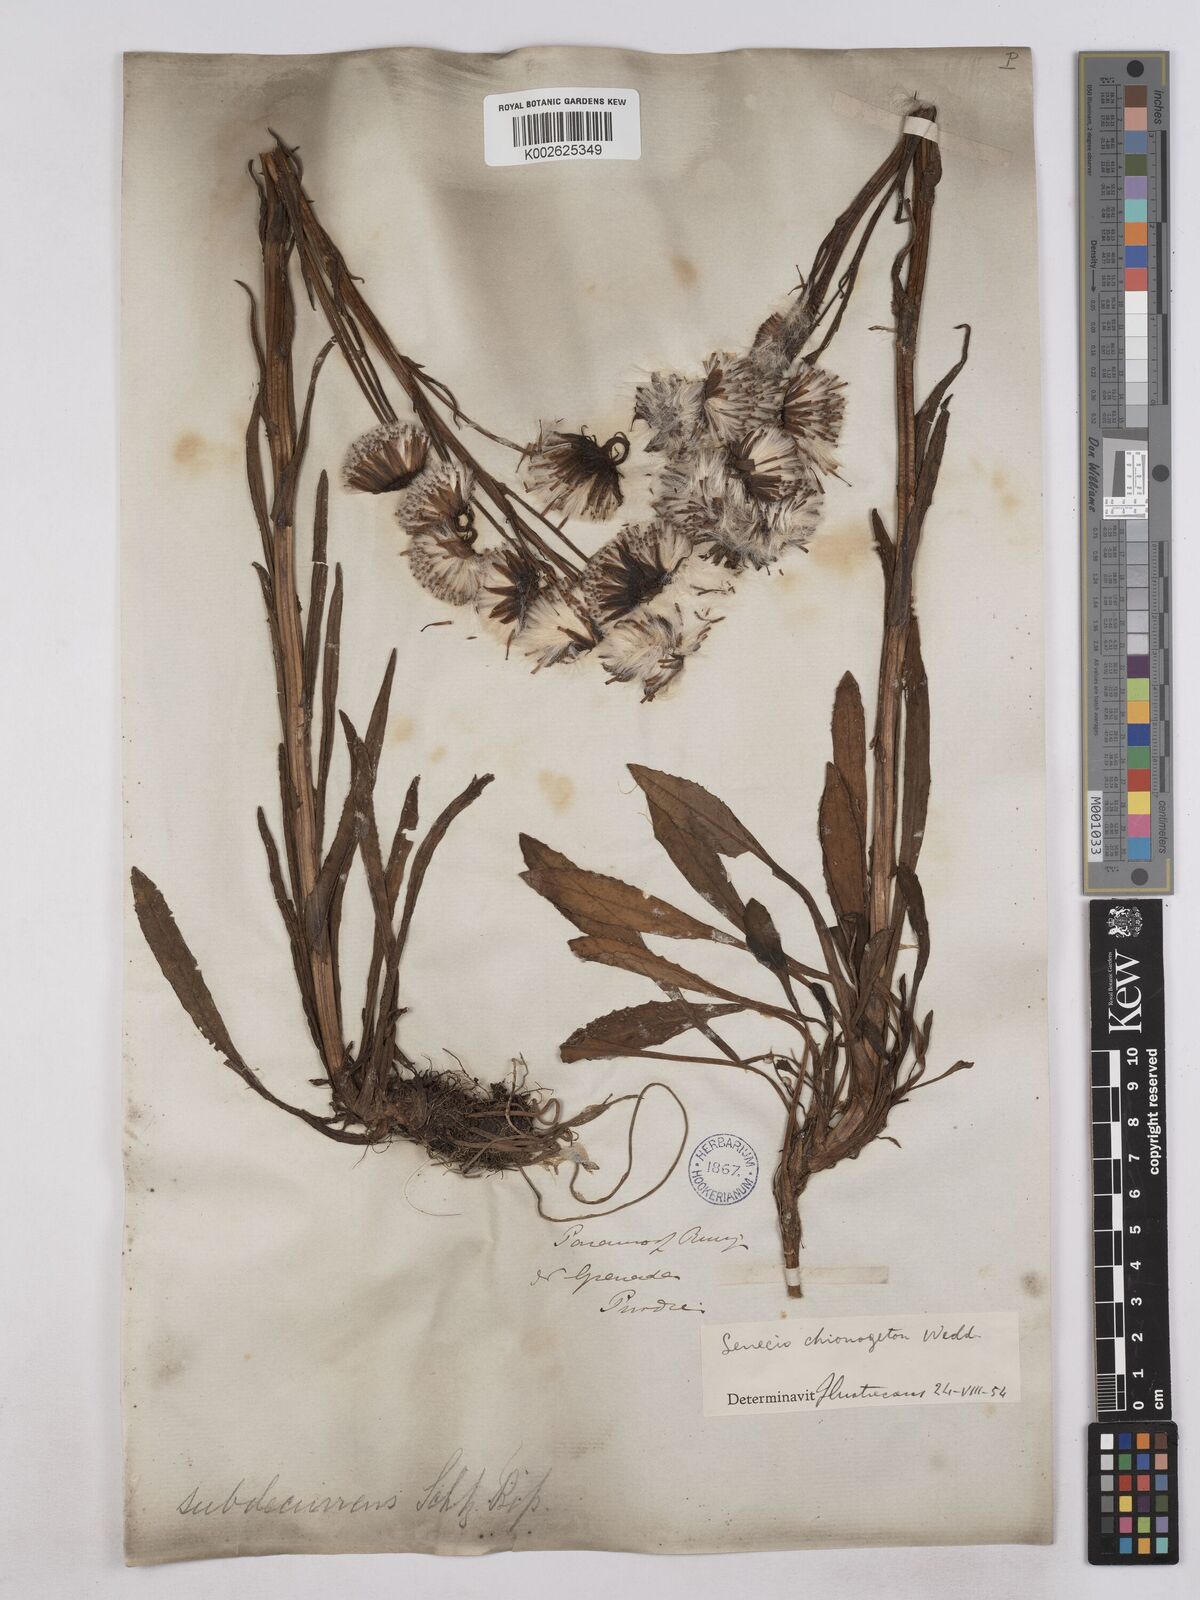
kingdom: Plantae
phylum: Tracheophyta
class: Magnoliopsida
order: Asterales
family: Asteraceae
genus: Senecio
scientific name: Senecio chionogeton
